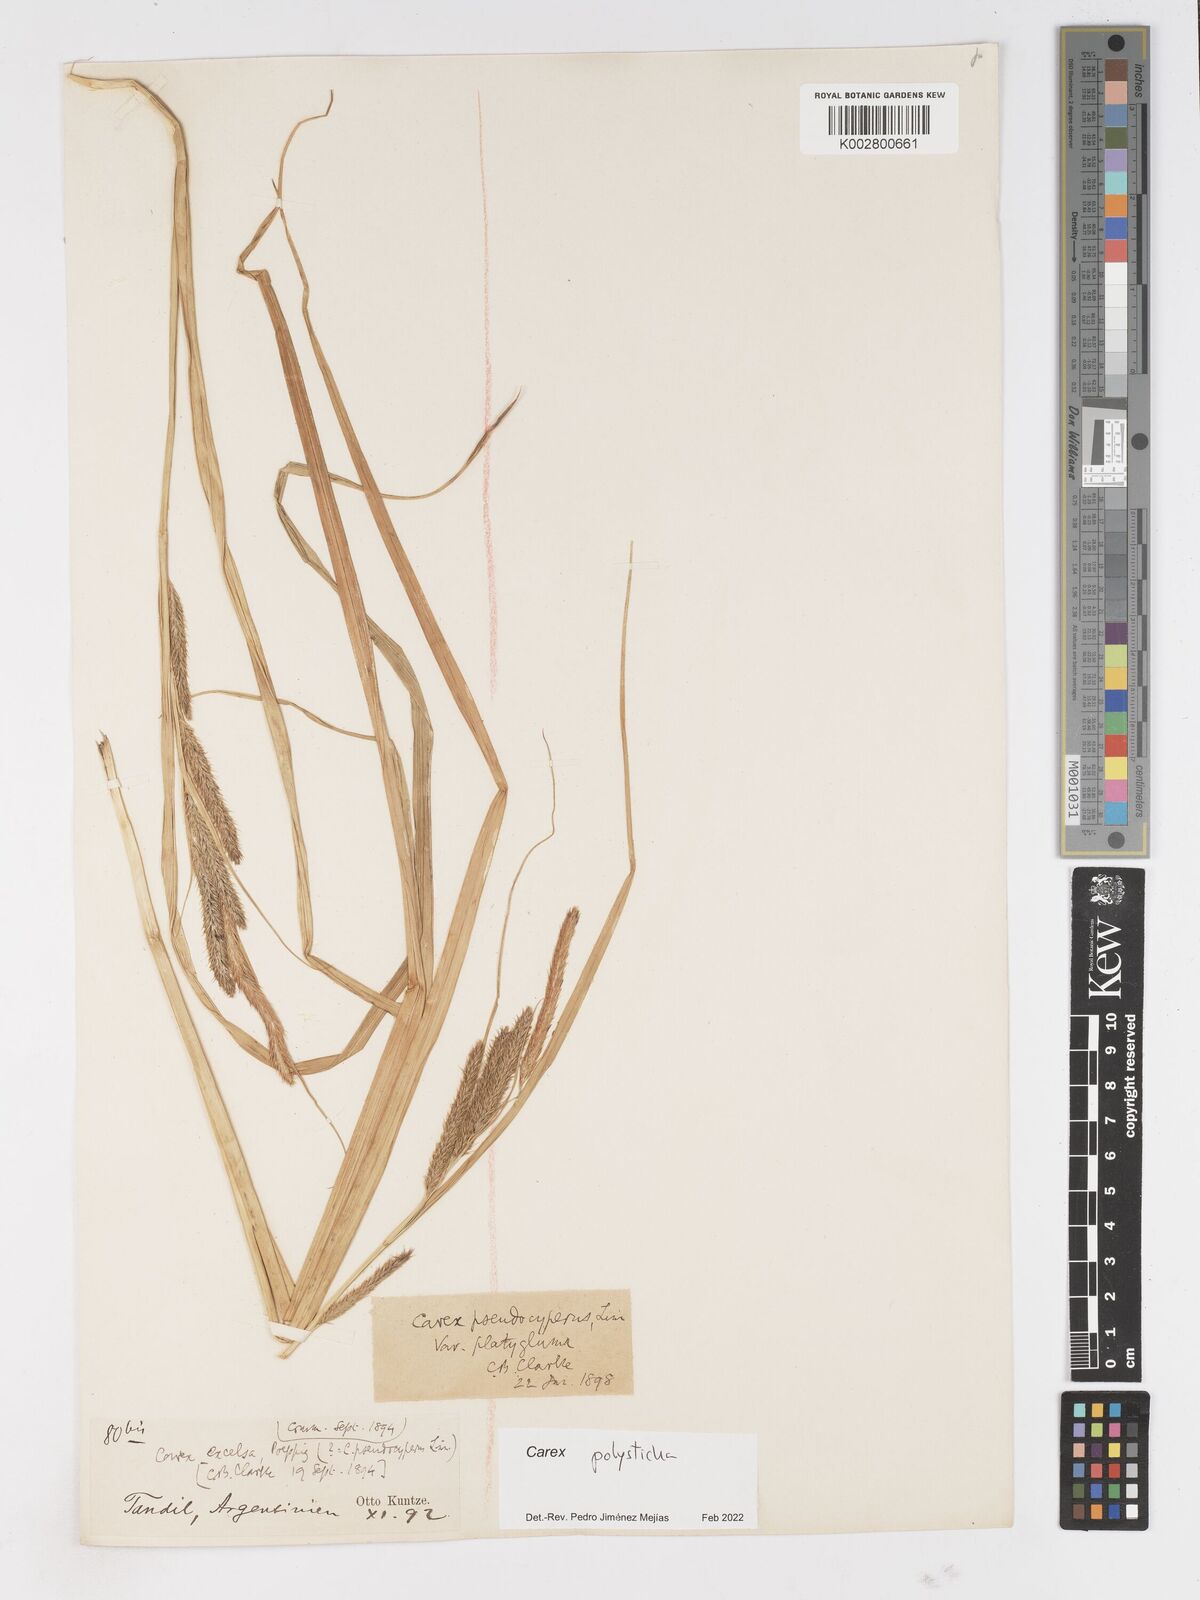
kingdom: Plantae
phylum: Tracheophyta
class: Liliopsida
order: Poales
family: Cyperaceae
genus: Carex
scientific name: Carex polysticha
